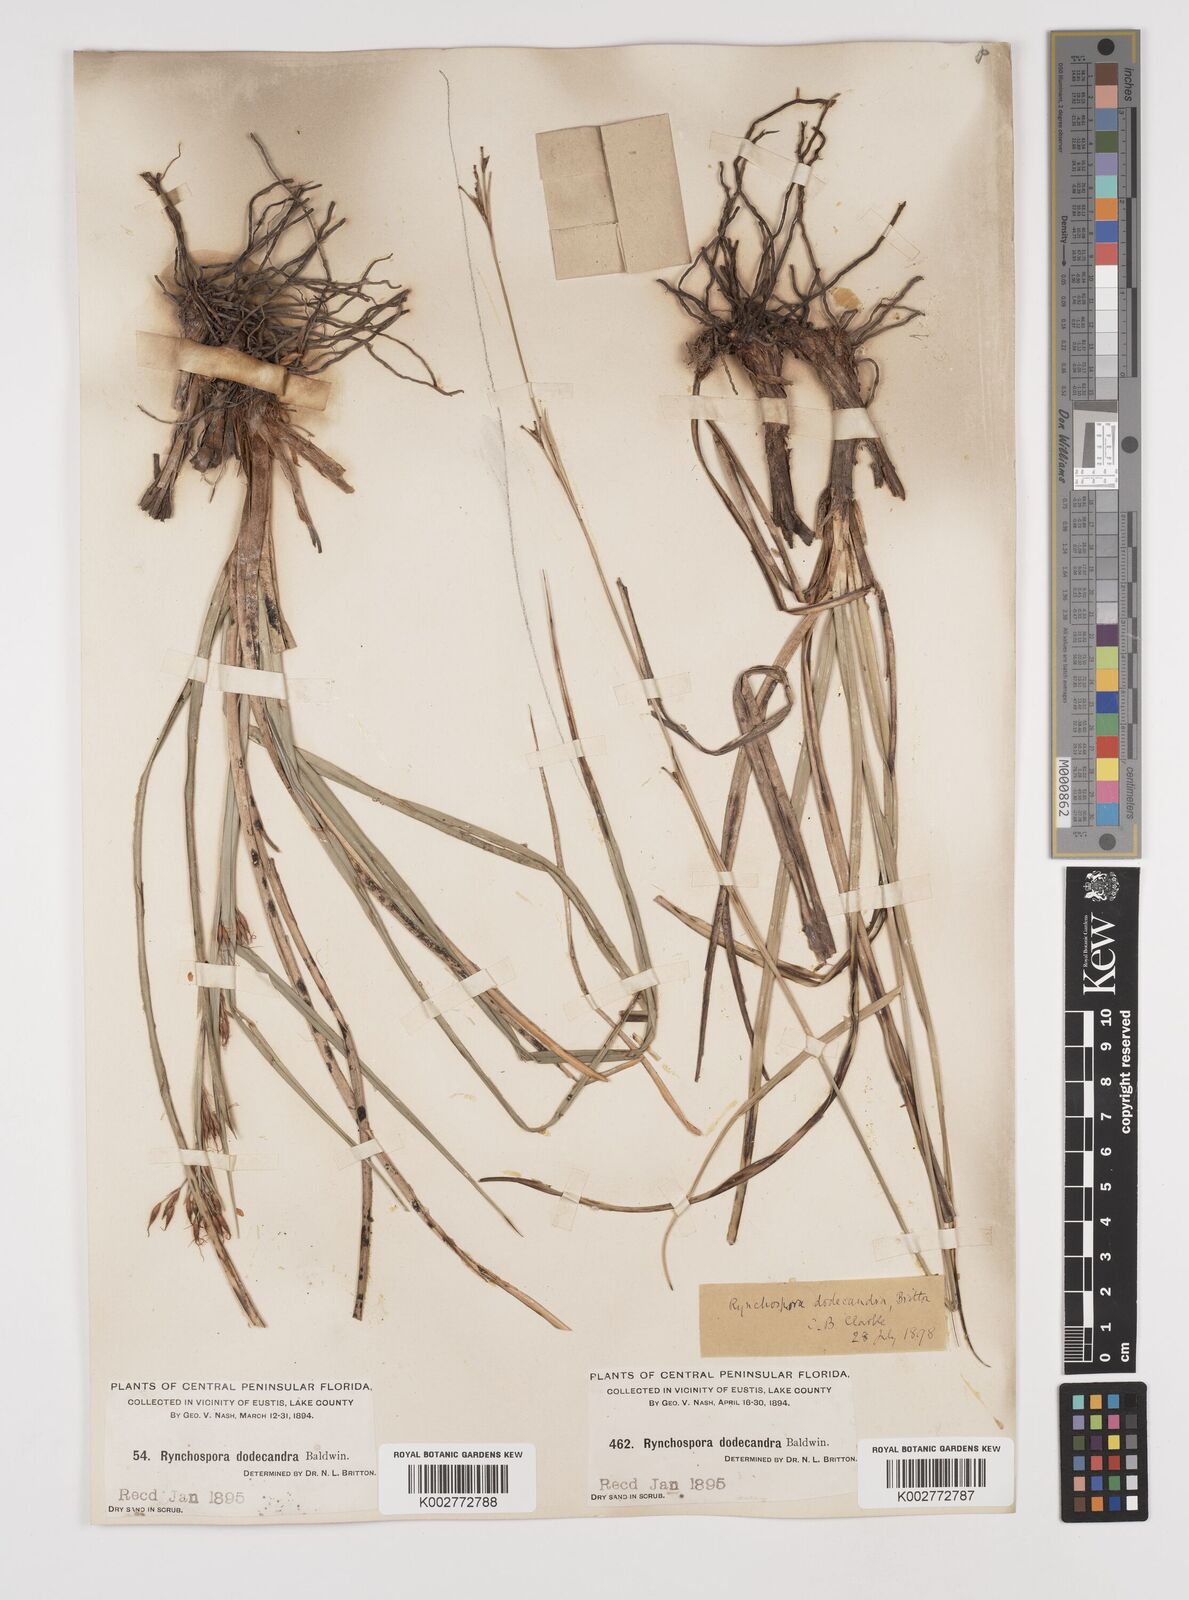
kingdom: Plantae
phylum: Tracheophyta
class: Liliopsida
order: Poales
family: Cyperaceae
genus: Rhynchospora
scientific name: Rhynchospora megalocarpa
